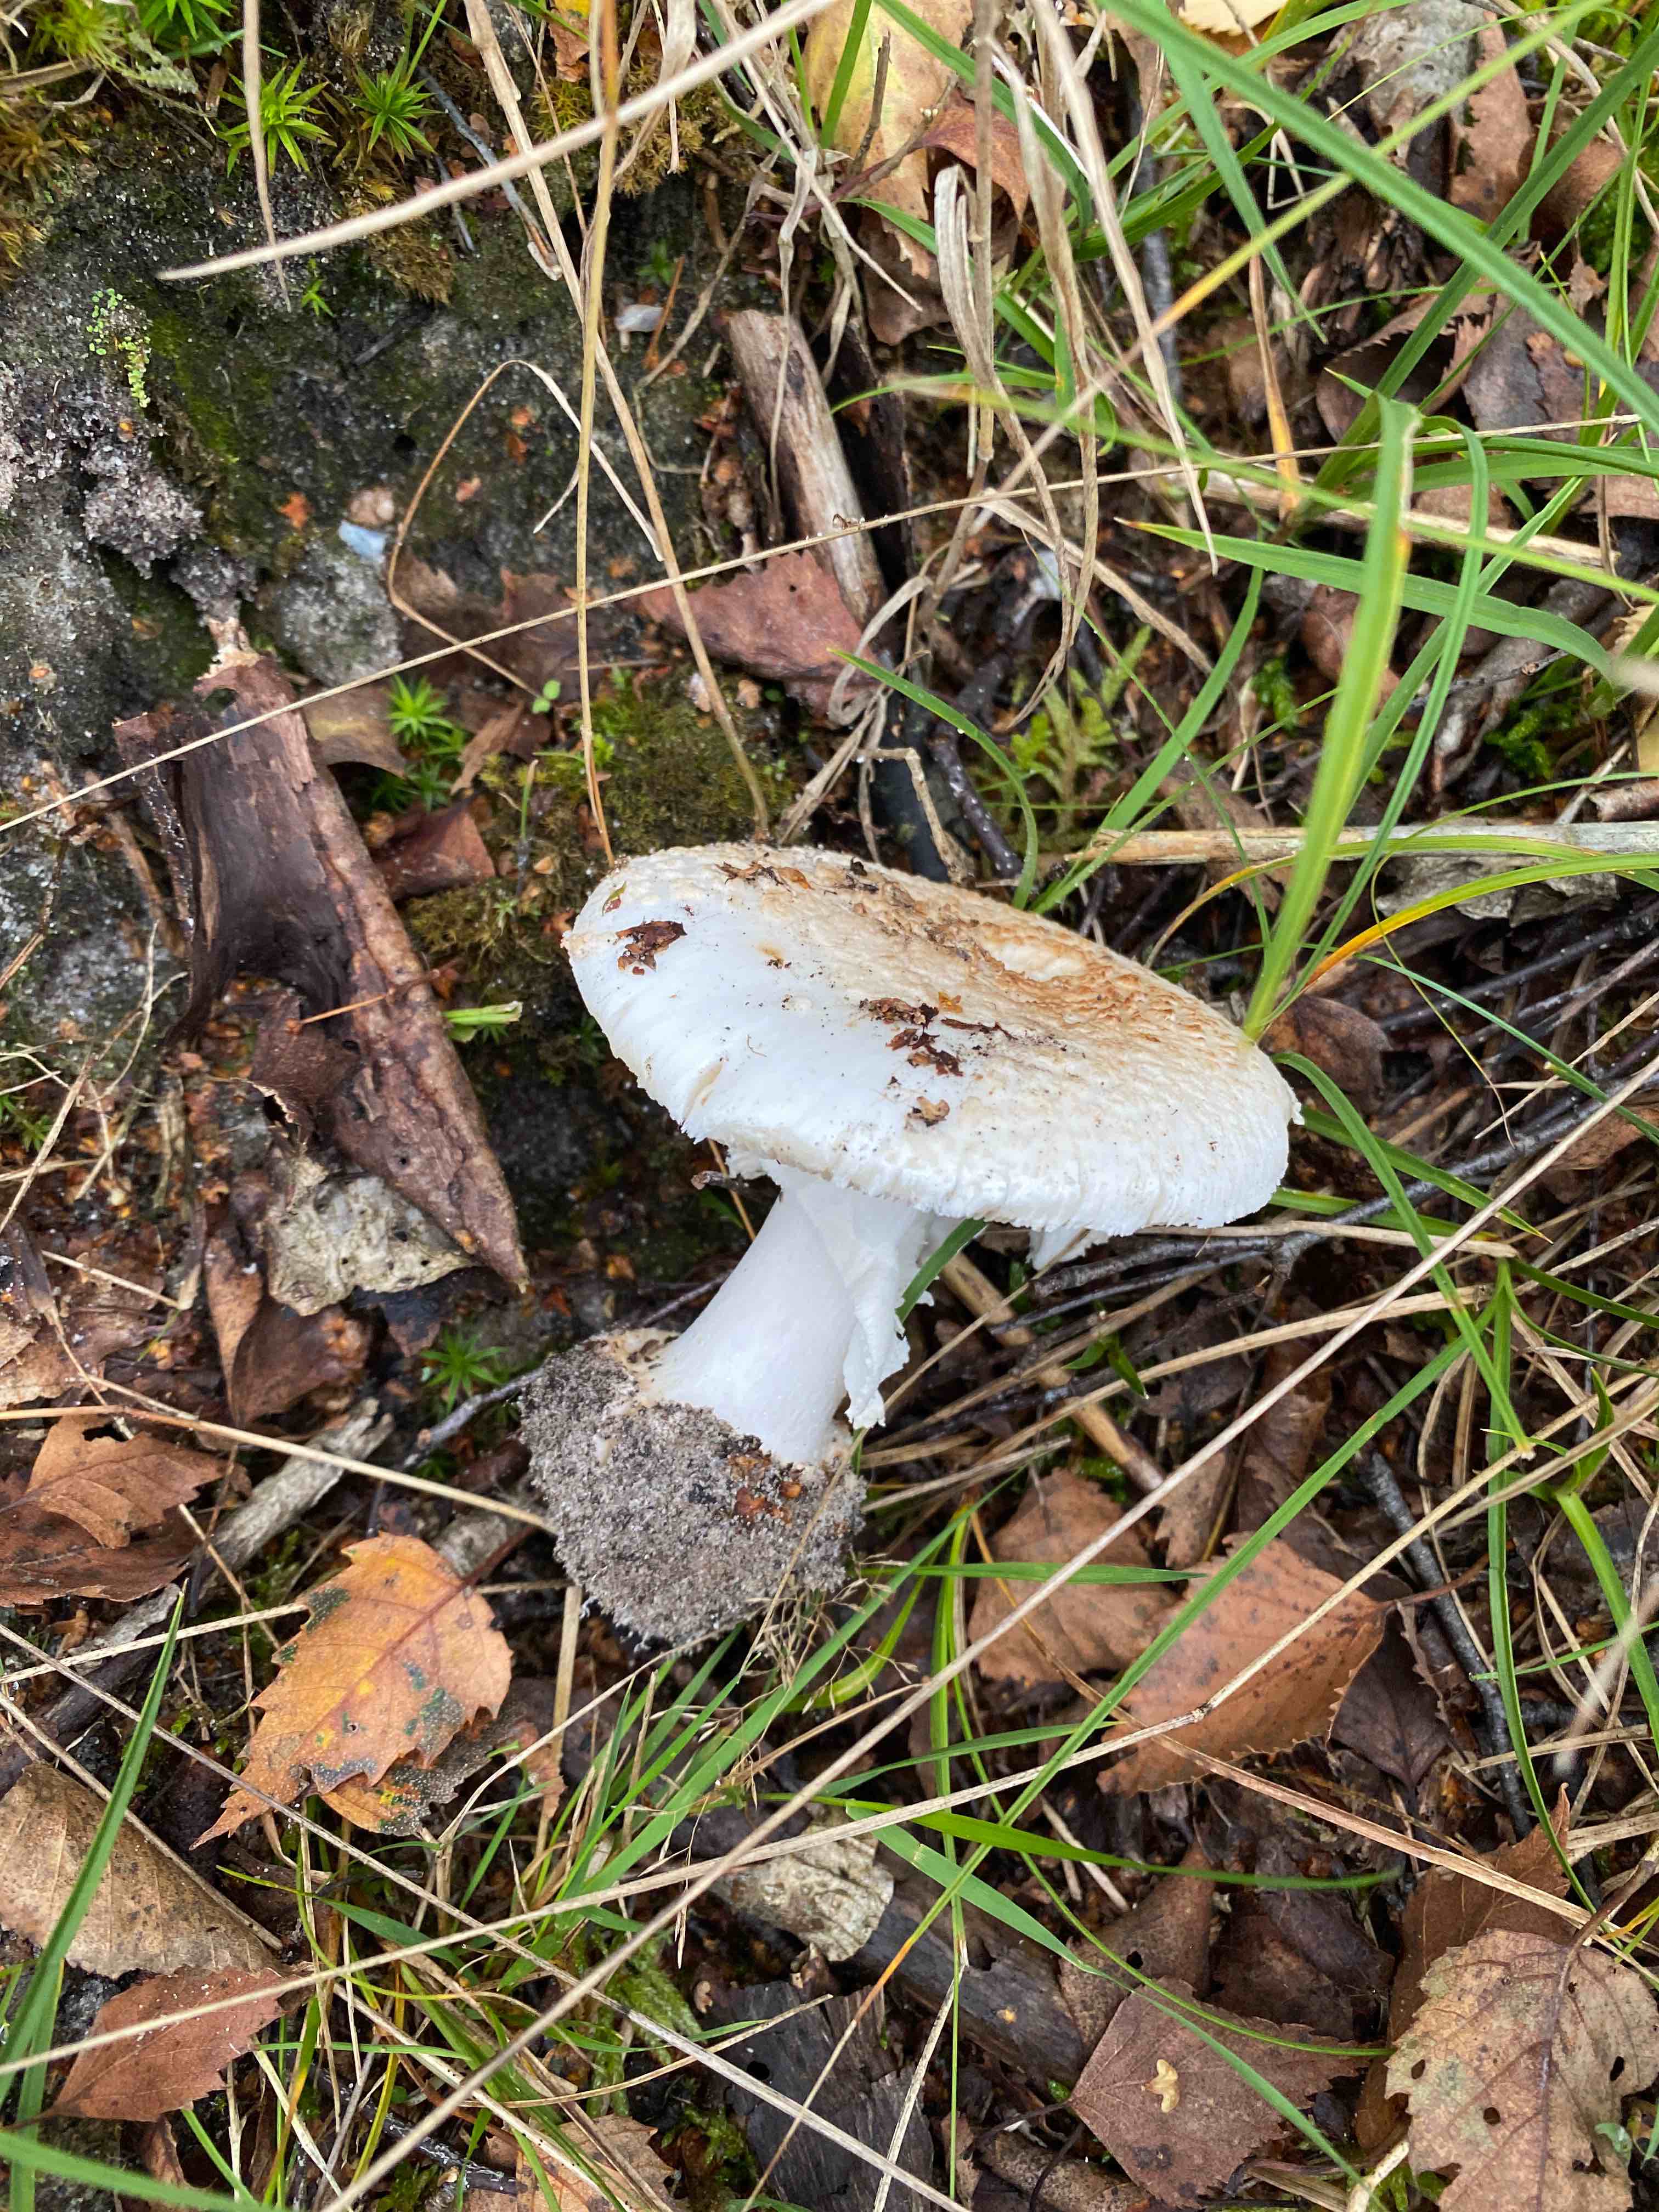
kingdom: Fungi
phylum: Basidiomycota
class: Agaricomycetes
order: Agaricales
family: Amanitaceae
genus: Amanita
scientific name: Amanita citrina
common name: False death-cap
